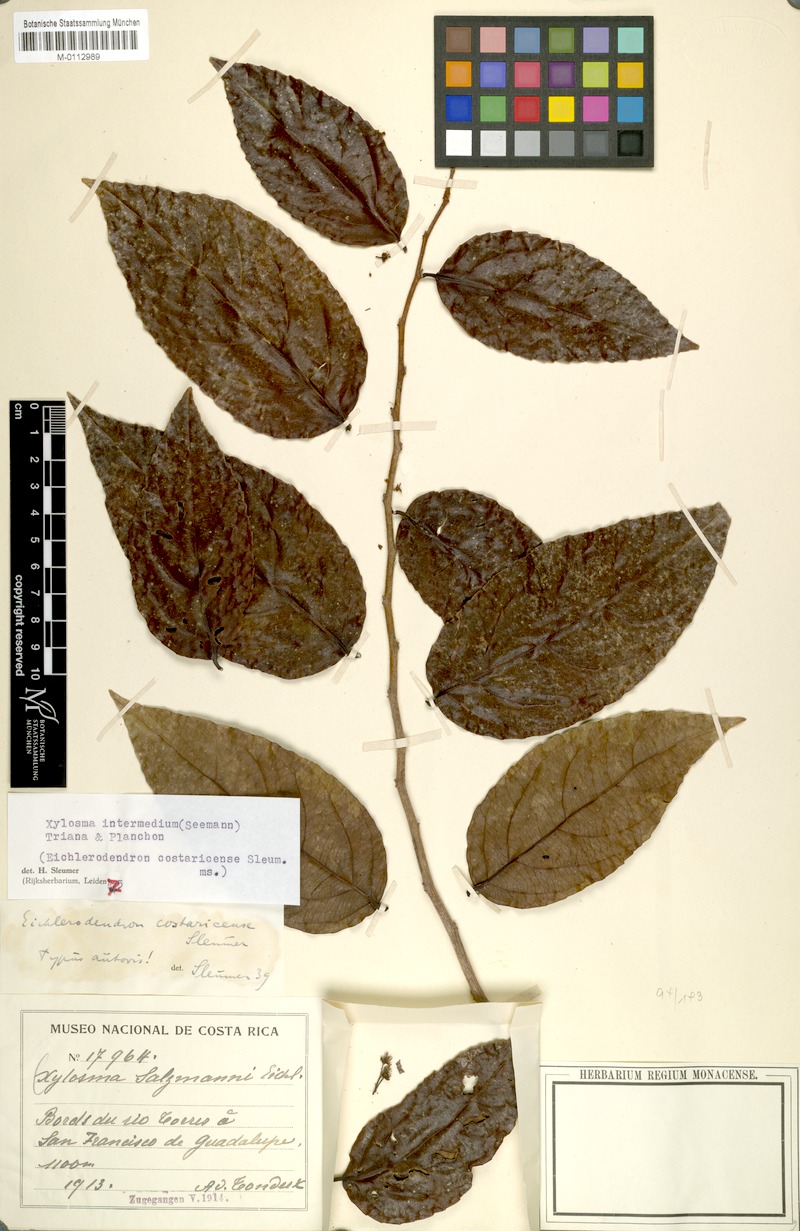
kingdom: Plantae
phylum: Tracheophyta
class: Magnoliopsida
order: Malpighiales
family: Salicaceae
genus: Xylosma
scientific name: Xylosma intermedia
